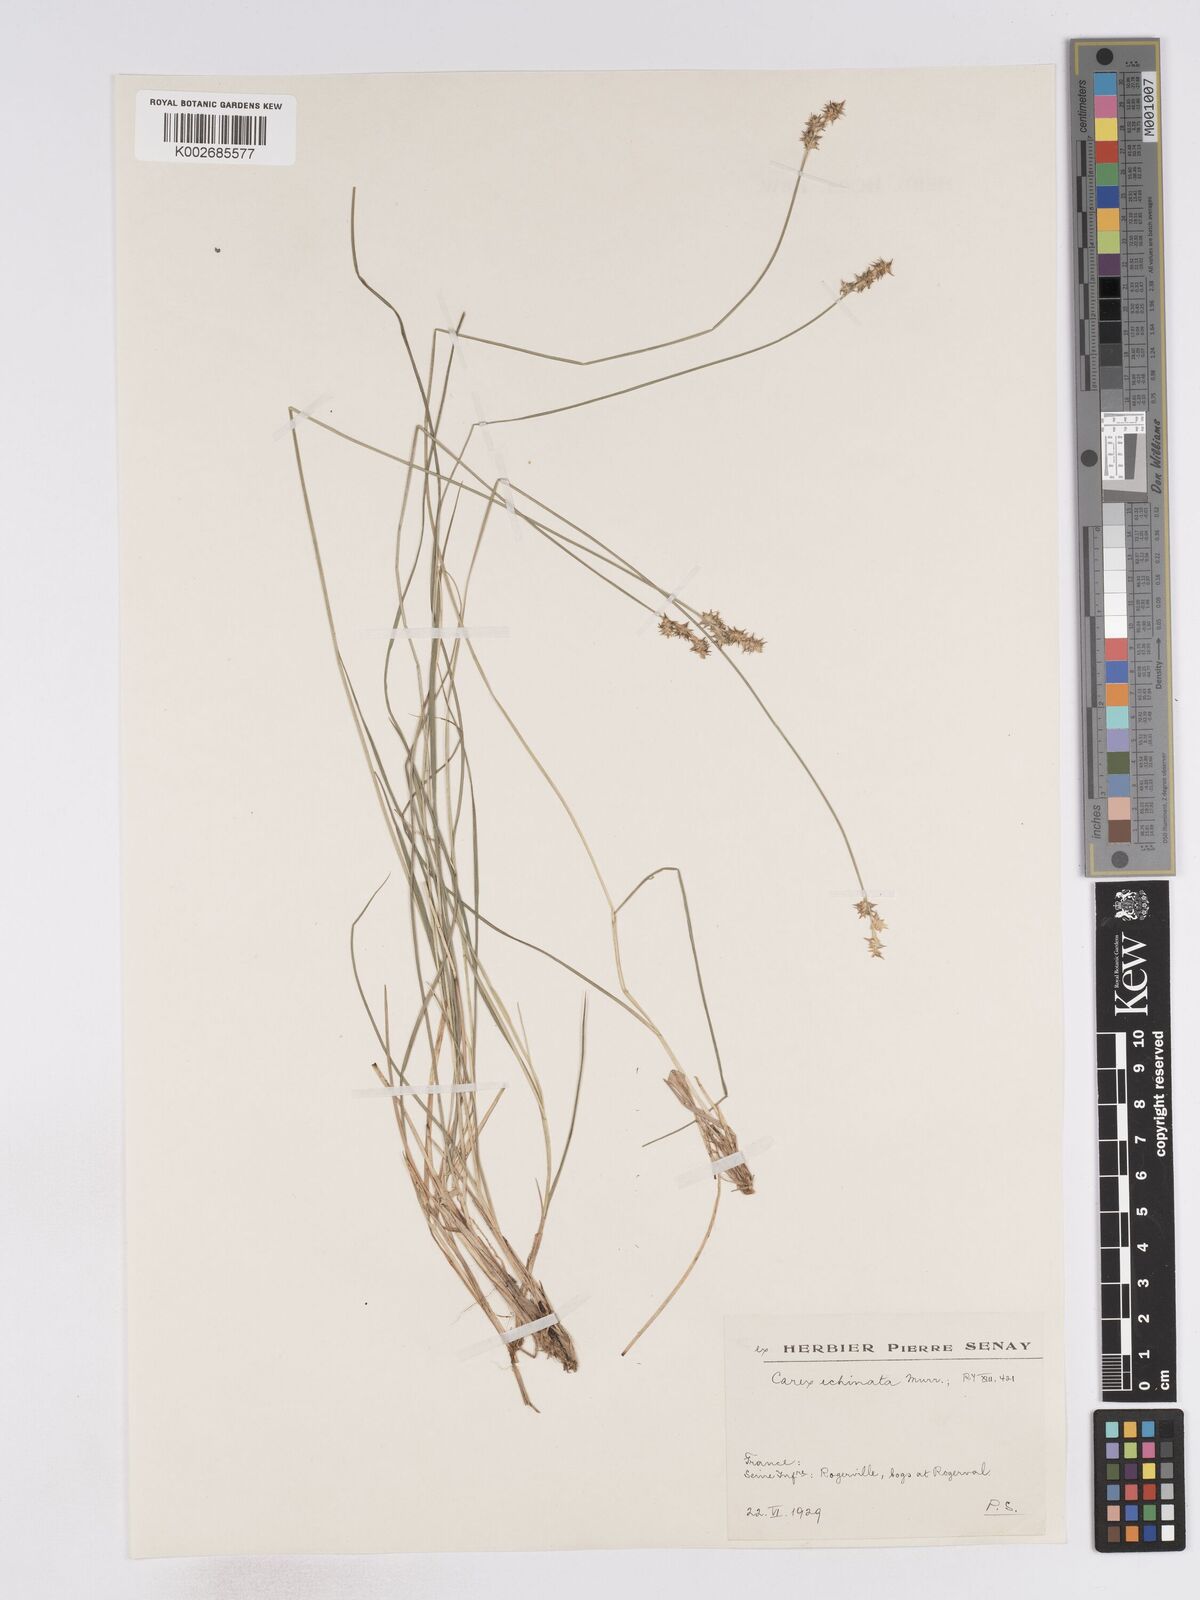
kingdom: Plantae
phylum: Tracheophyta
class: Liliopsida
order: Poales
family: Cyperaceae
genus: Carex
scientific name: Carex echinata
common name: Star sedge
